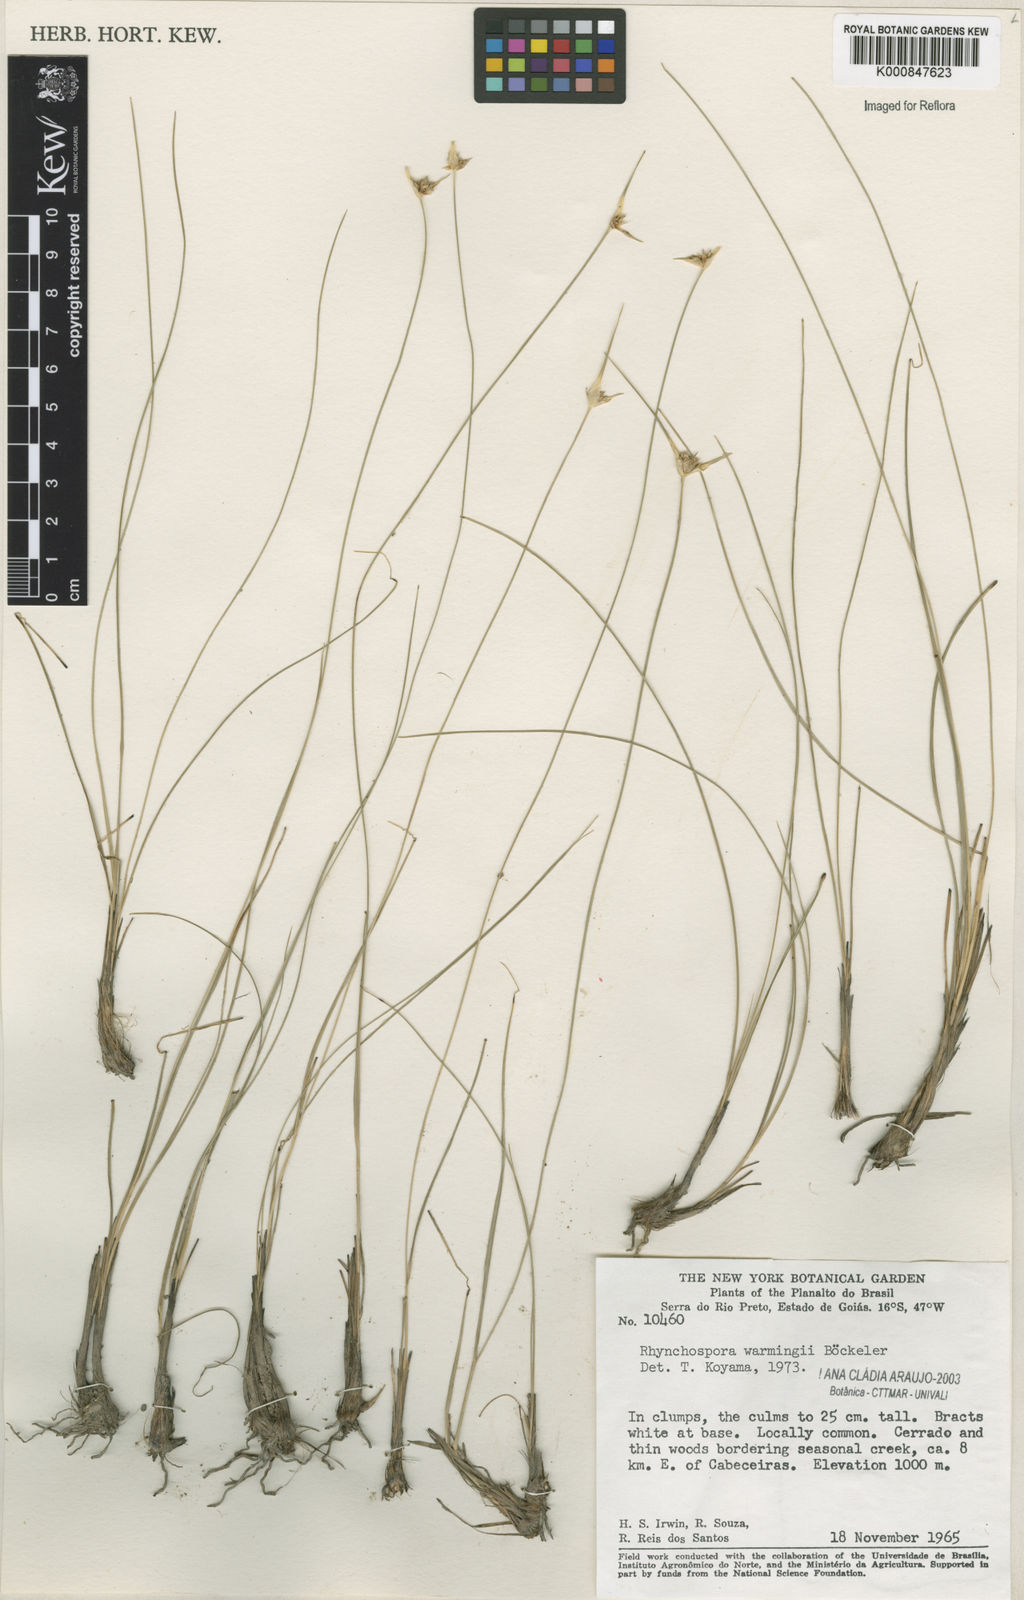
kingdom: Plantae
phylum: Tracheophyta
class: Liliopsida
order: Poales
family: Cyperaceae
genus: Rhynchospora
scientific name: Rhynchospora warmingii
